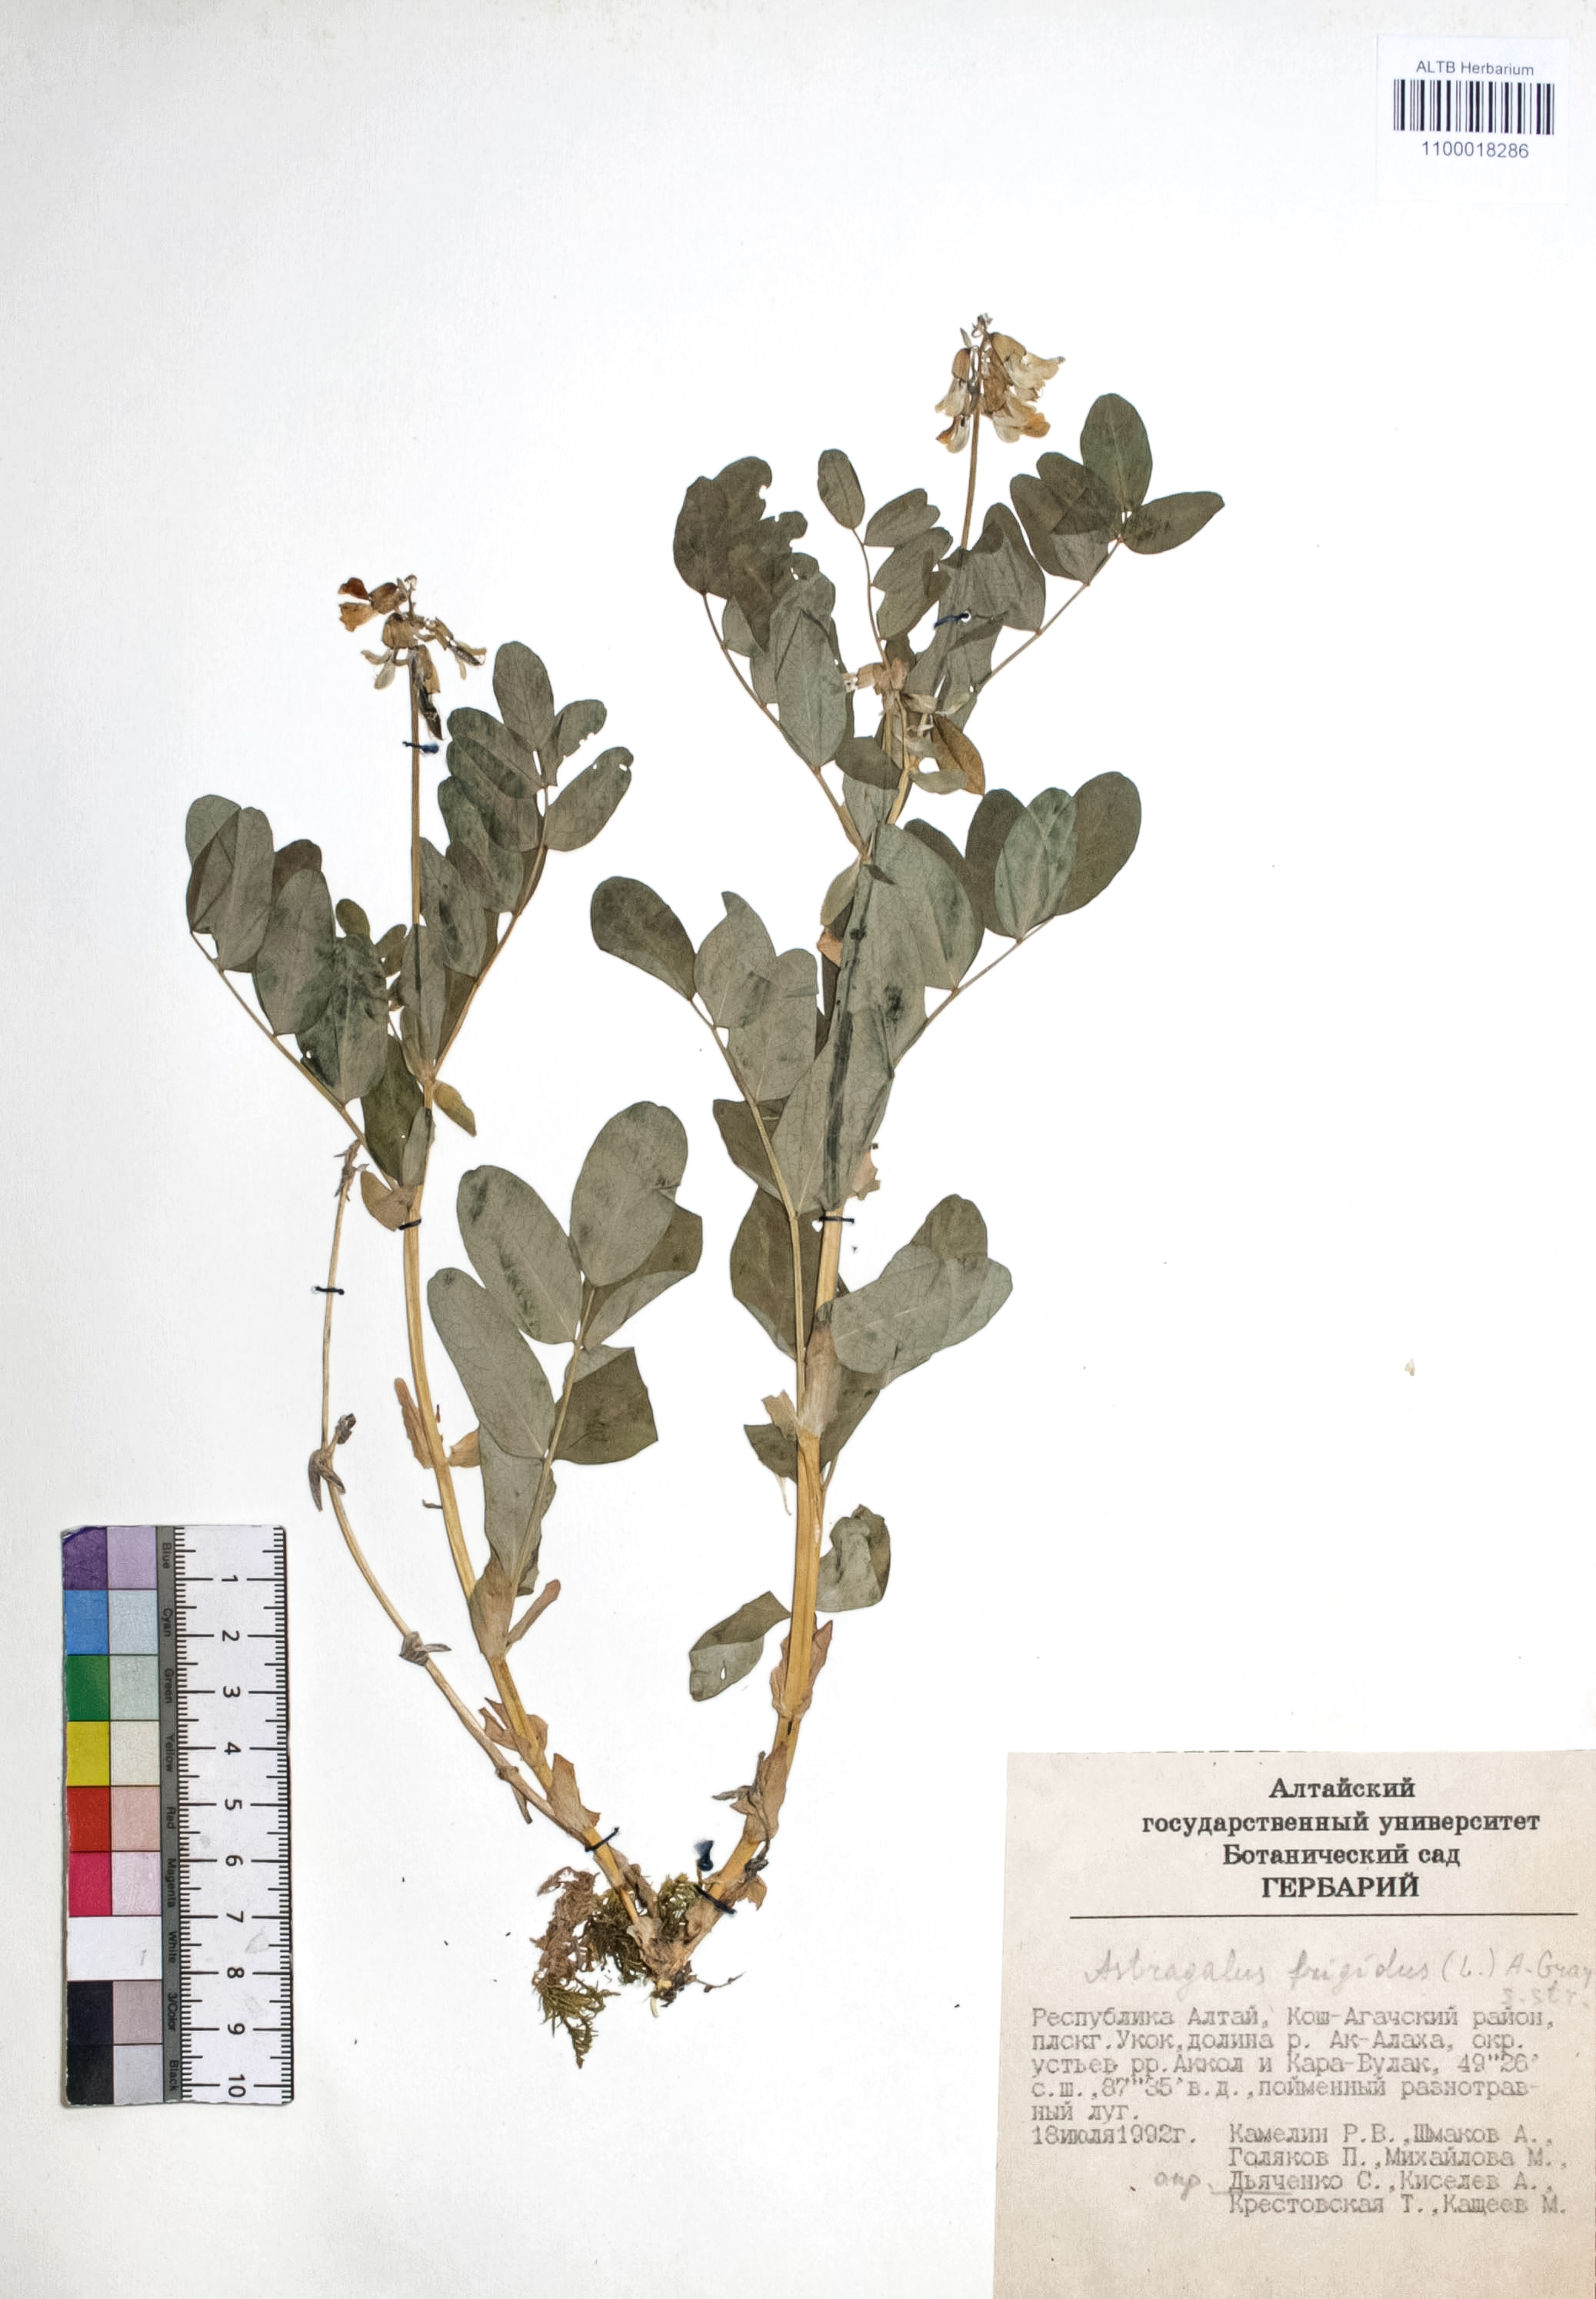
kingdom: Plantae
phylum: Tracheophyta
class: Magnoliopsida
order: Fabales
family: Fabaceae
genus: Astragalus
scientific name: Astragalus frigidus
